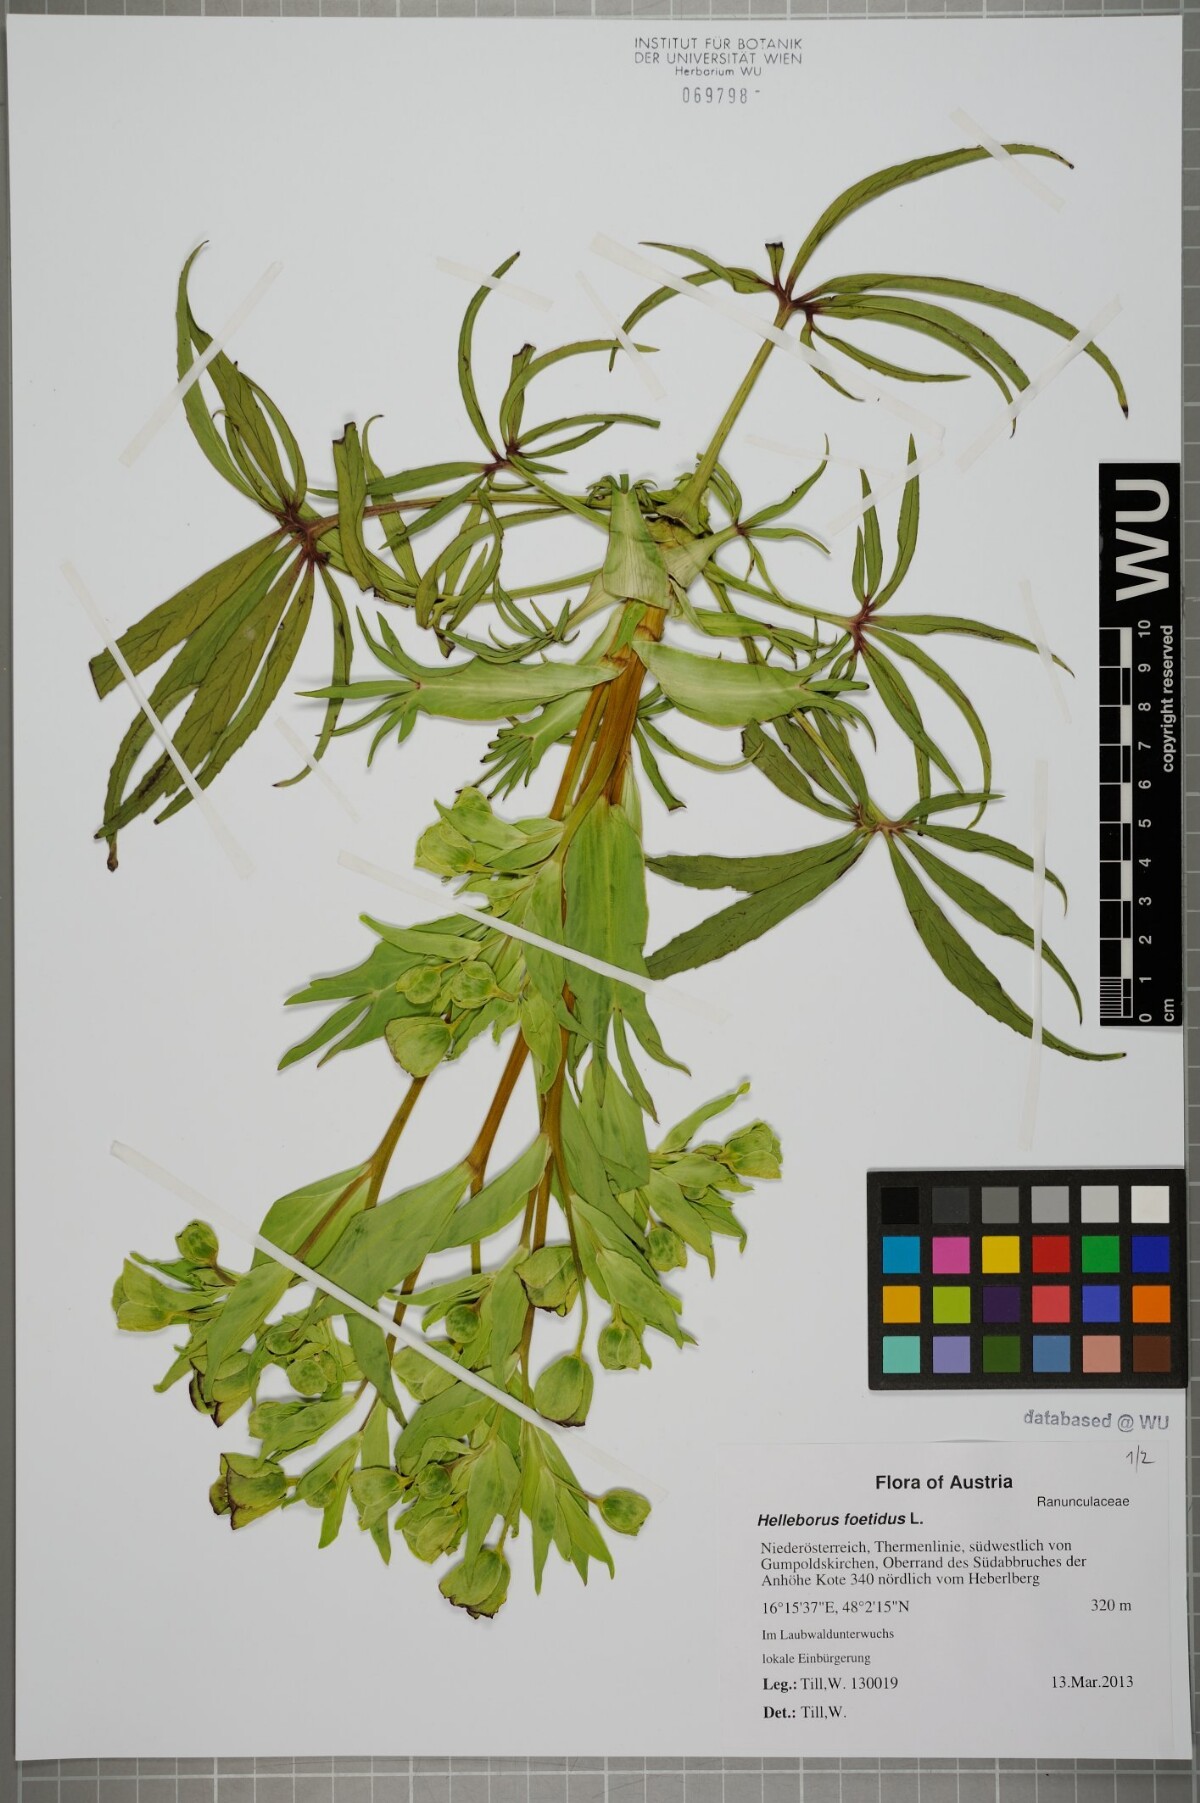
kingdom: Plantae
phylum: Tracheophyta
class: Magnoliopsida
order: Ranunculales
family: Ranunculaceae
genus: Helleborus
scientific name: Helleborus foetidus
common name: Stinking hellebore
